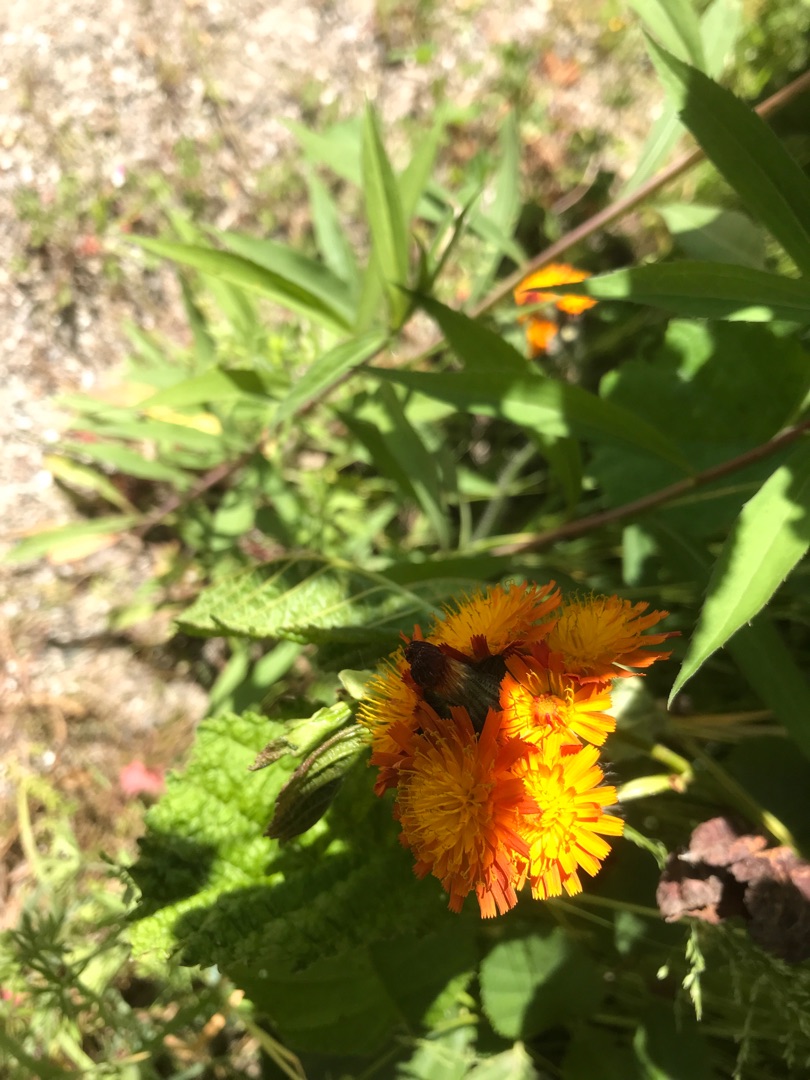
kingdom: Plantae
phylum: Tracheophyta
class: Magnoliopsida
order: Asterales
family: Asteraceae
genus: Pilosella
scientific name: Pilosella aurantiaca
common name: Pomerans-høgeurt
